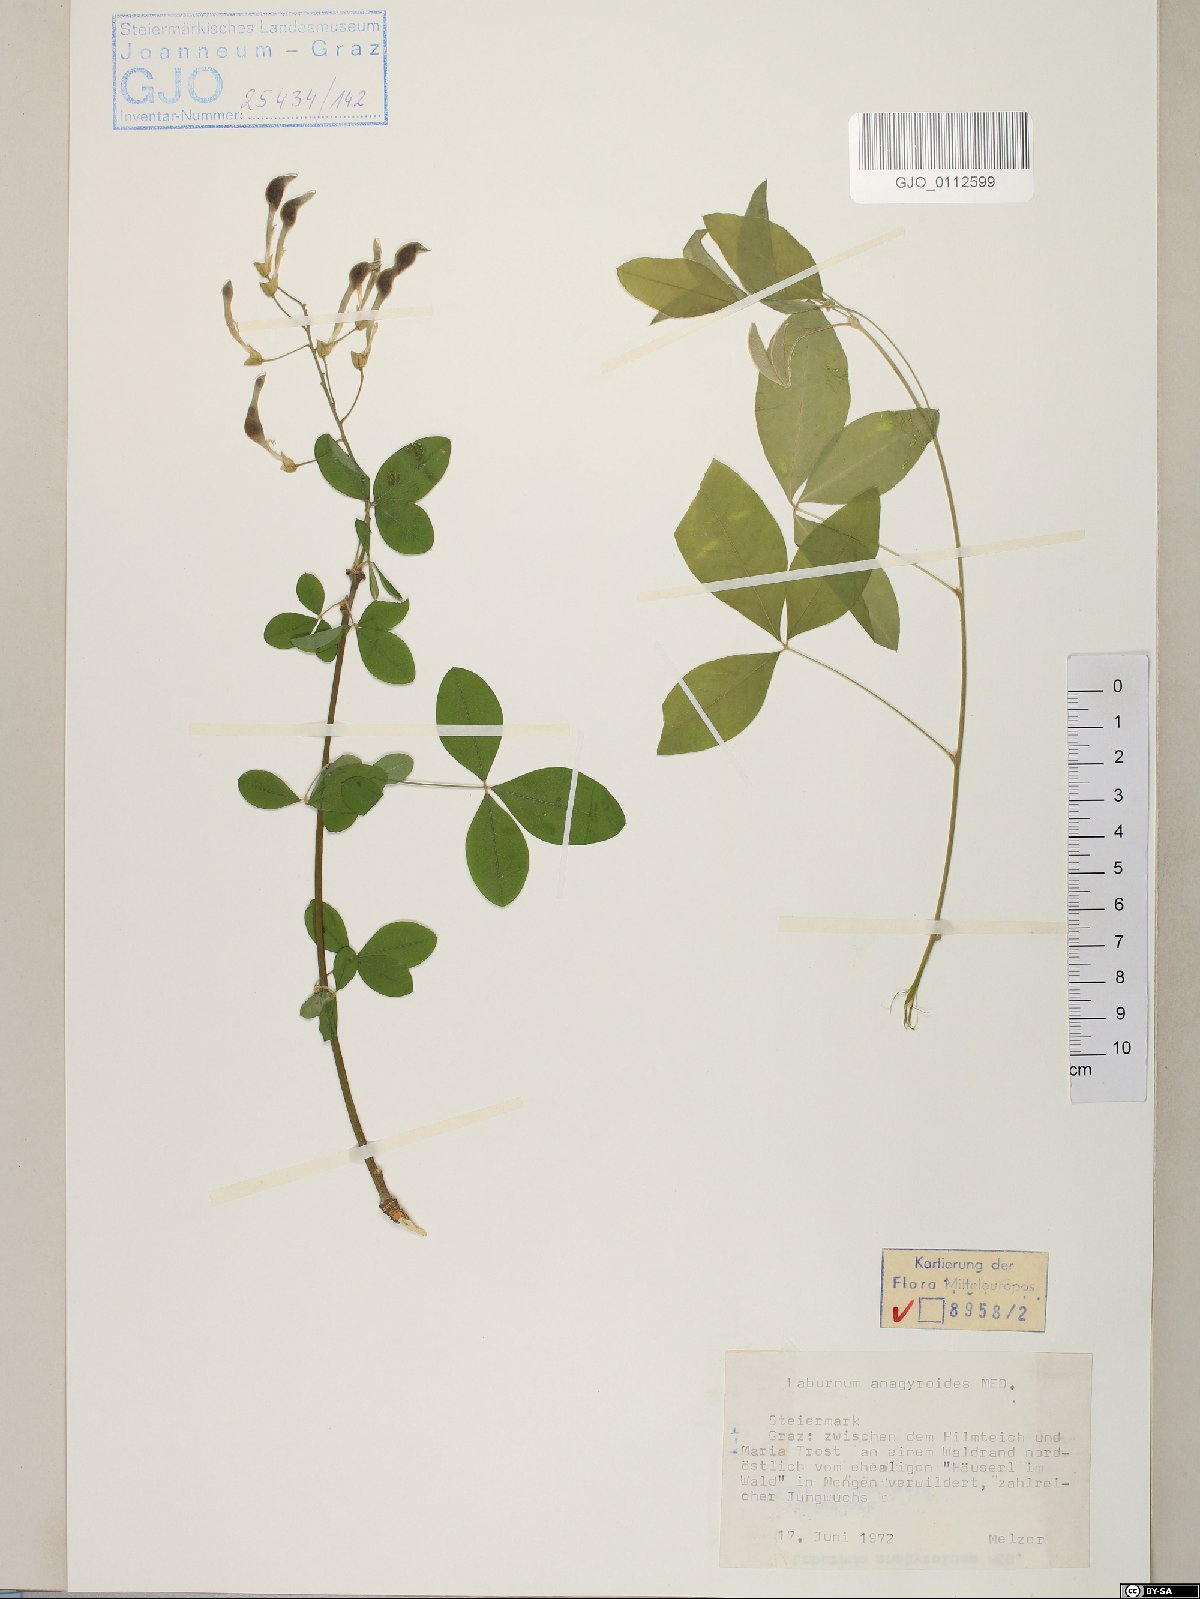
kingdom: Plantae
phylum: Tracheophyta
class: Magnoliopsida
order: Fabales
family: Fabaceae
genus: Laburnum
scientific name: Laburnum anagyroides
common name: Laburnum
